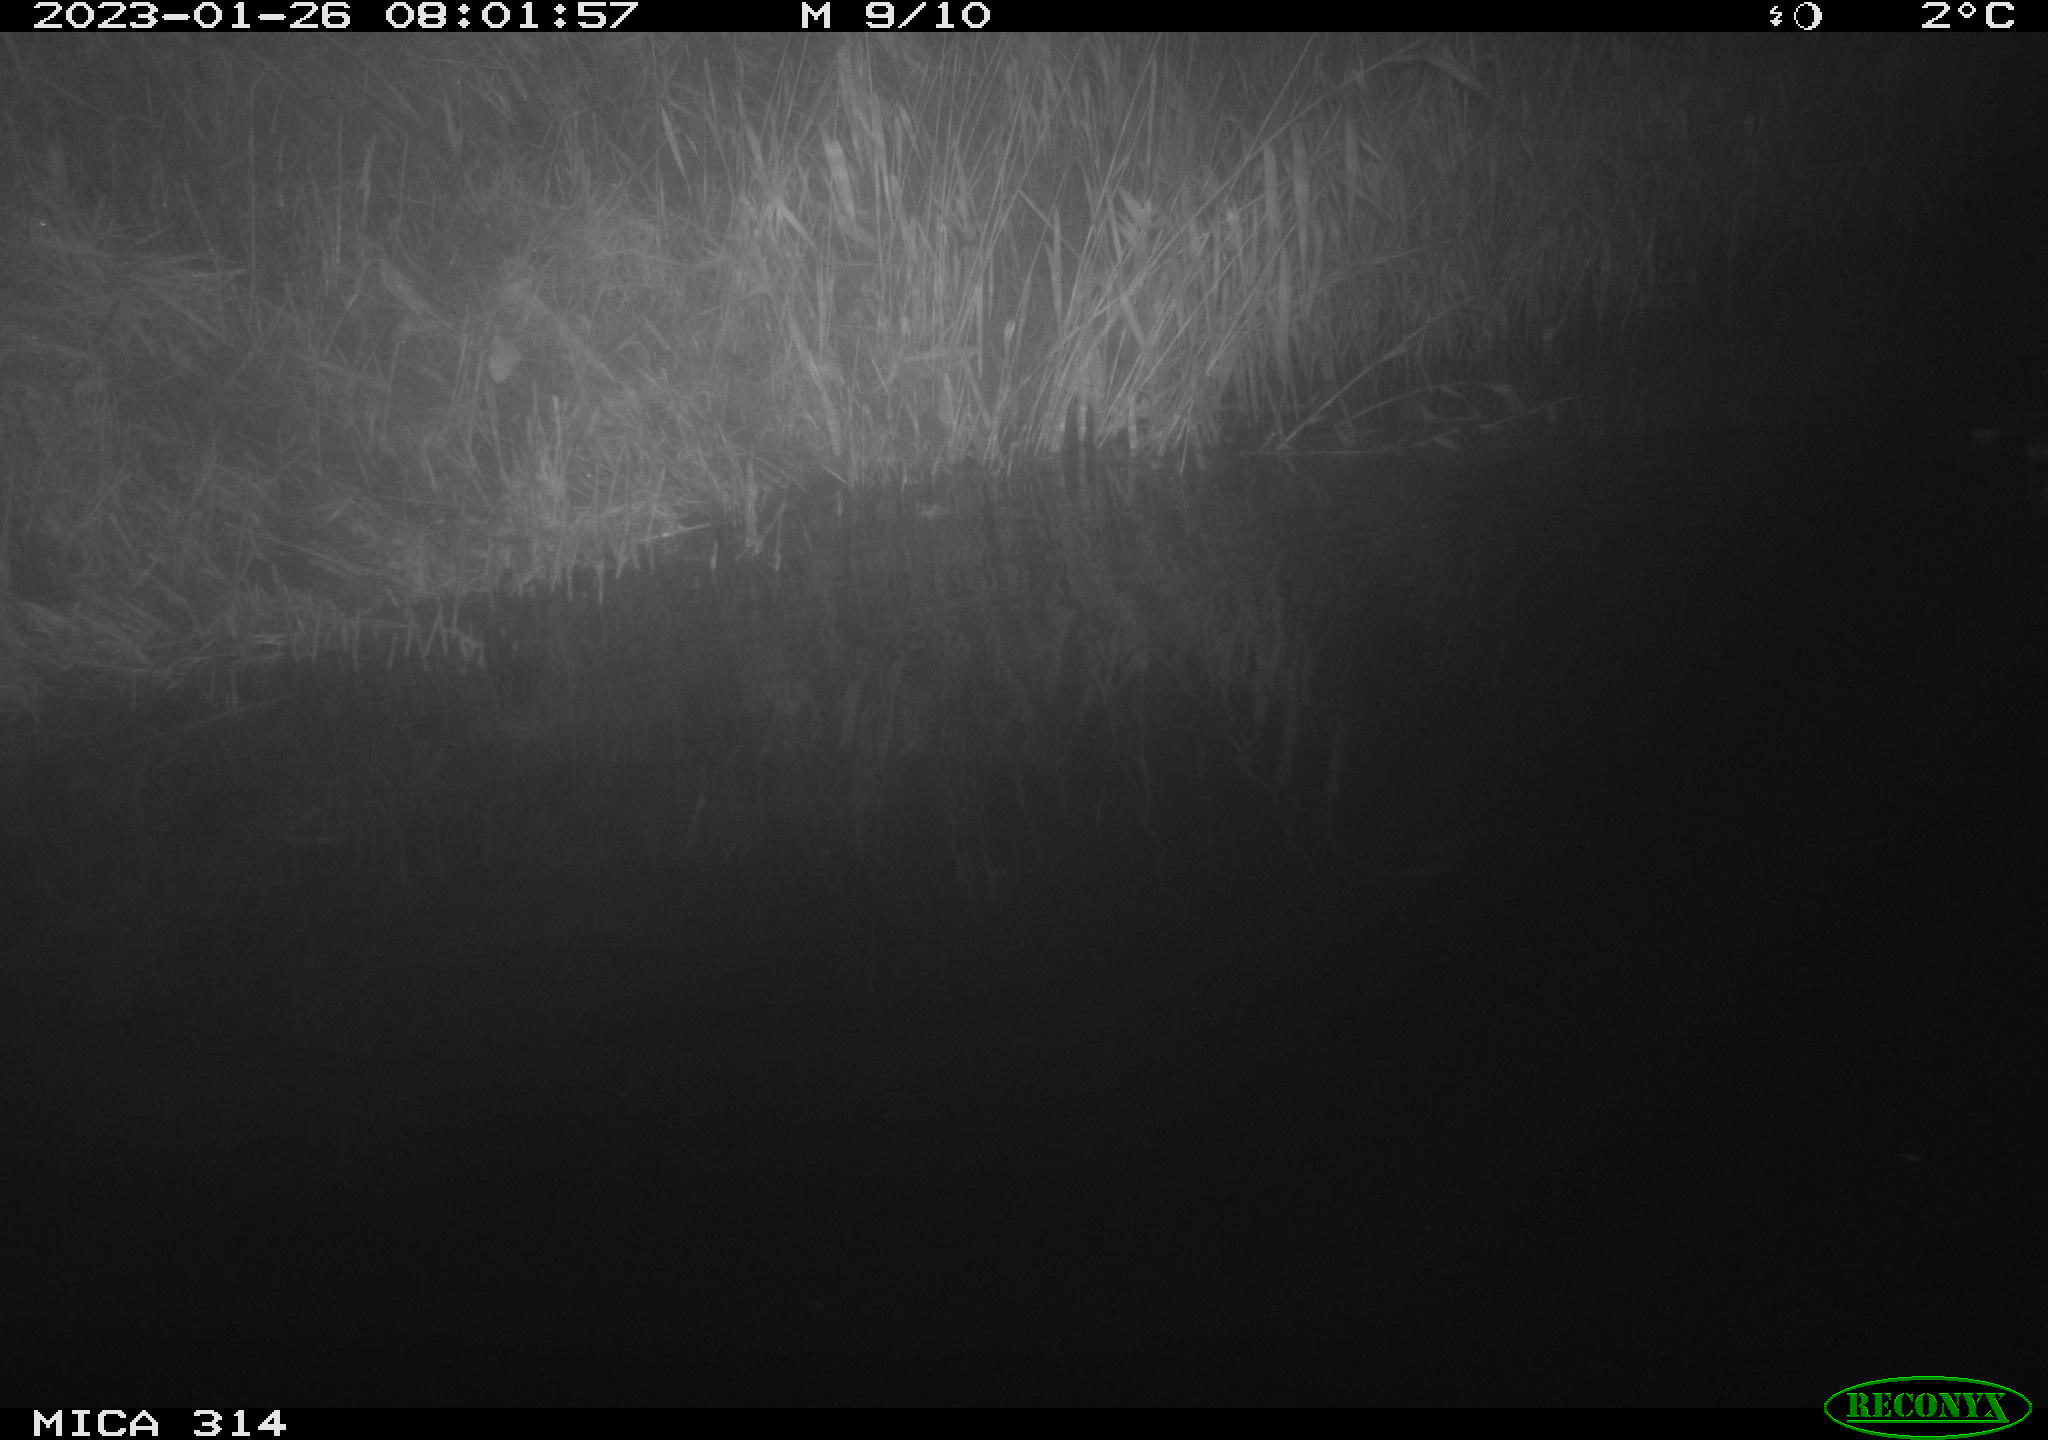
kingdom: Animalia
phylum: Chordata
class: Aves
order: Gruiformes
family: Rallidae
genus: Gallinula
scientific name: Gallinula chloropus
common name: Common moorhen
